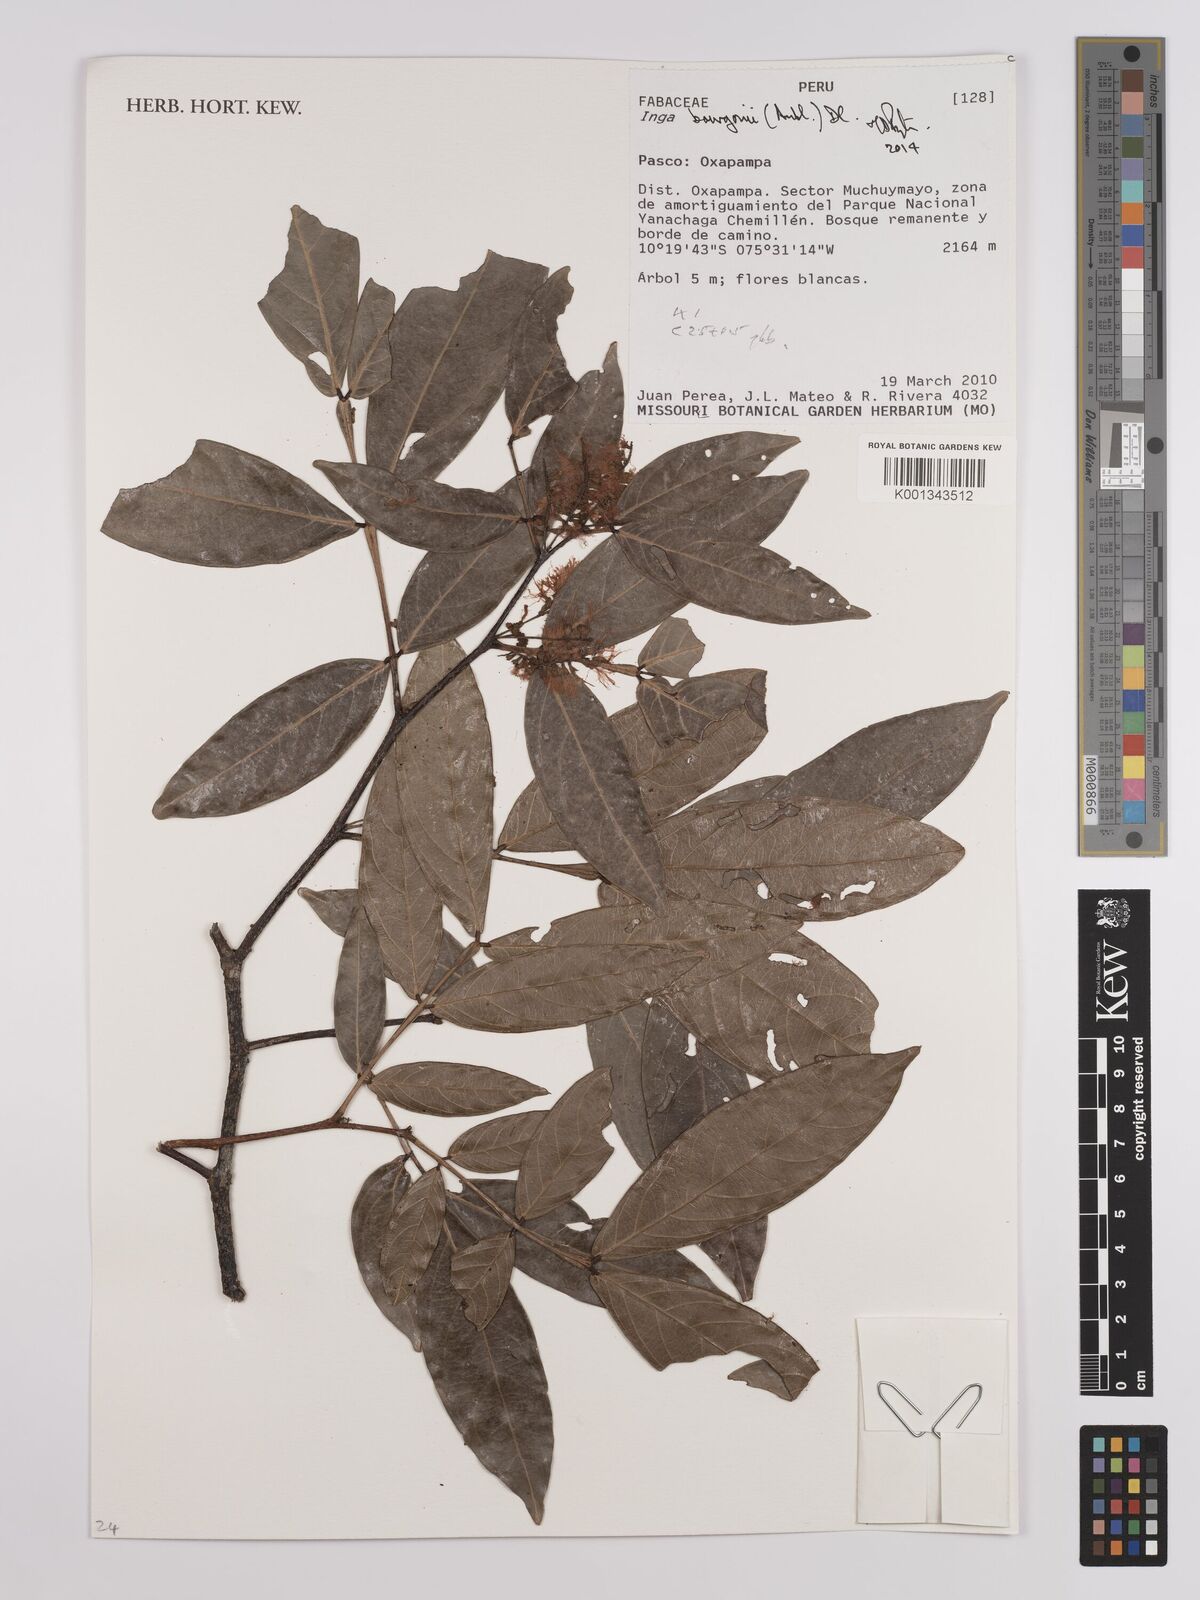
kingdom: Plantae
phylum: Tracheophyta
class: Magnoliopsida
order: Fabales
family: Fabaceae
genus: Inga
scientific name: Inga bourgoni
